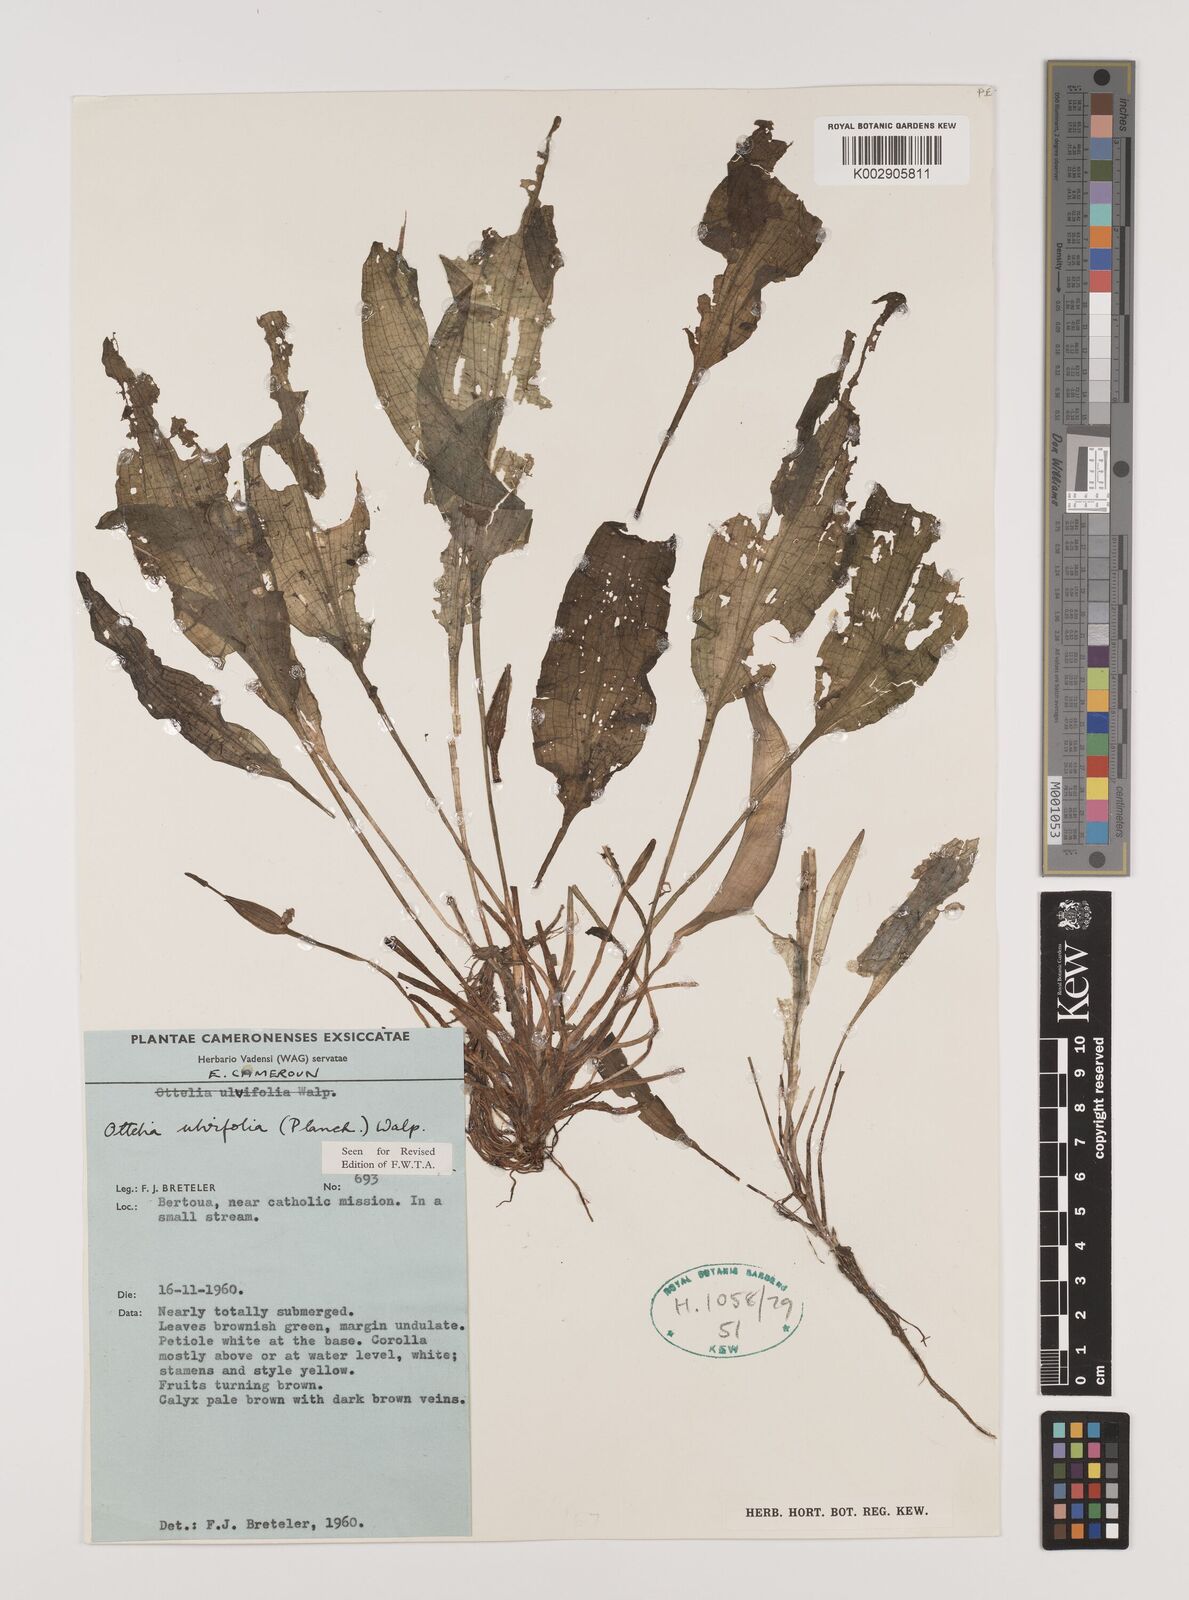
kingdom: Plantae
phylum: Tracheophyta
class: Liliopsida
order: Alismatales
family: Hydrocharitaceae
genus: Ottelia
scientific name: Ottelia ulvifolia
